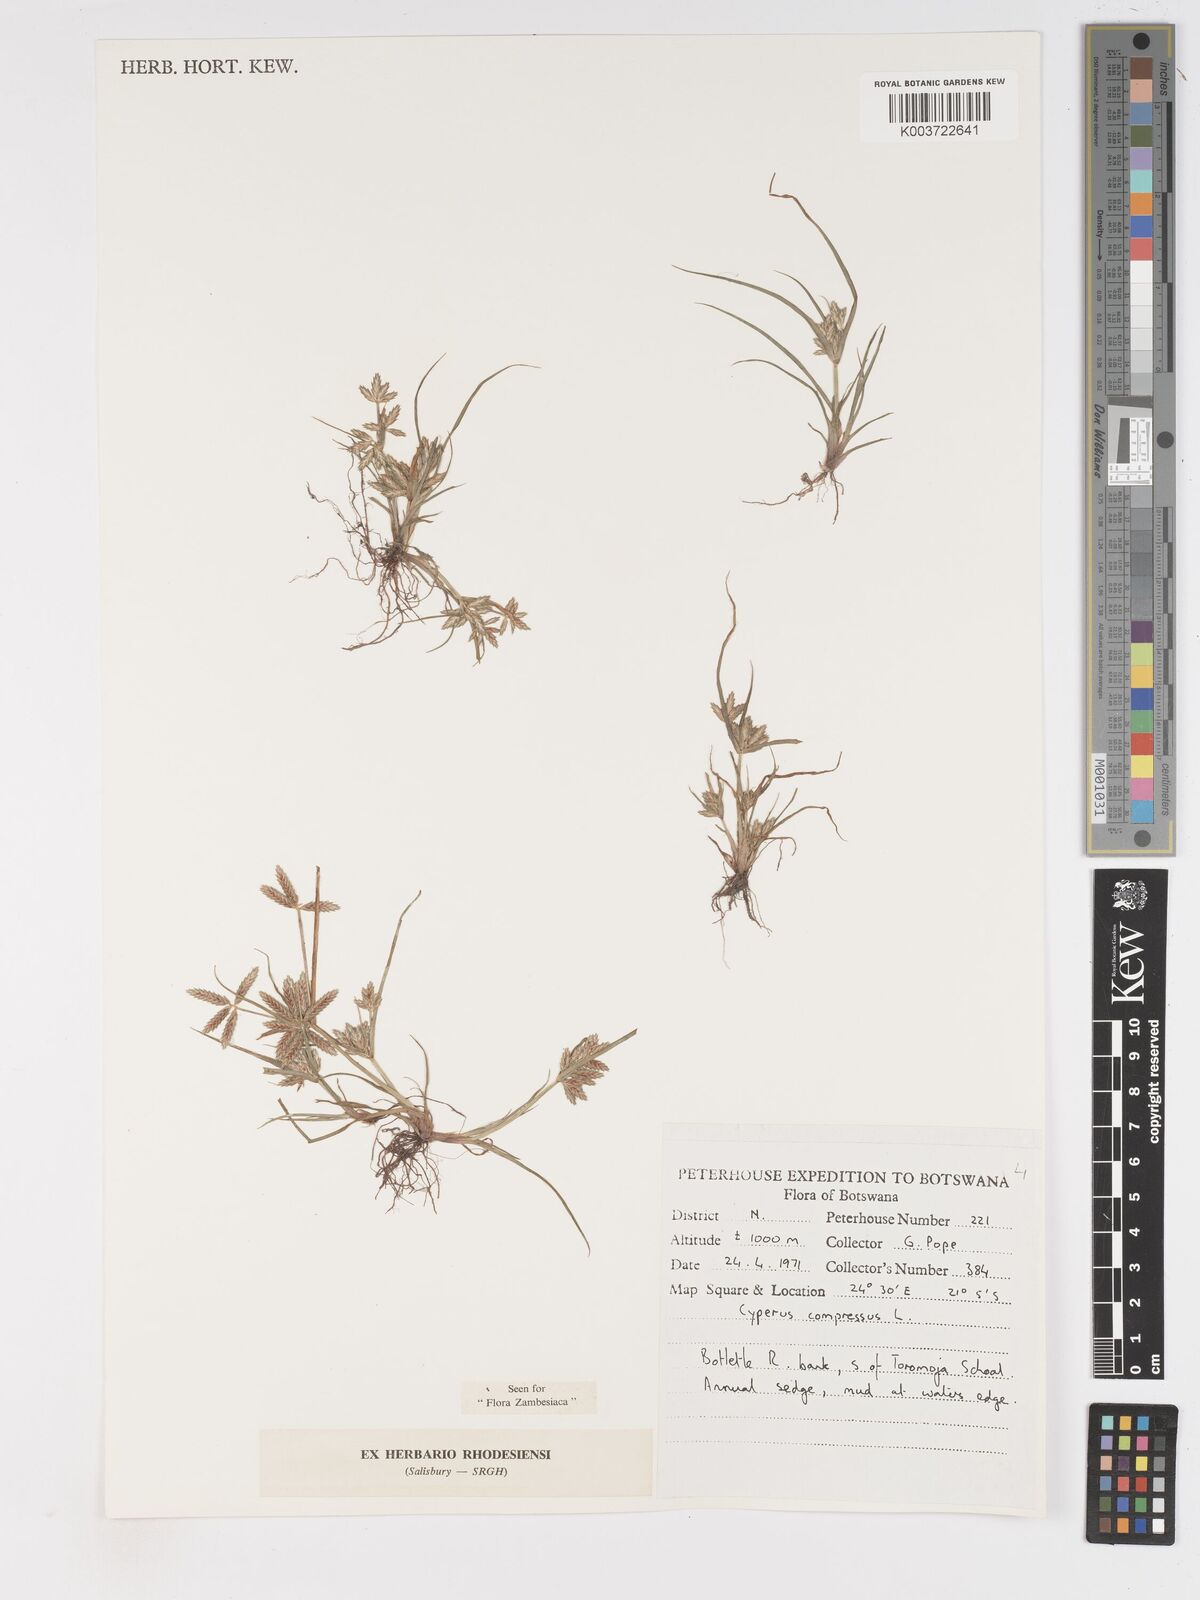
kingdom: Plantae
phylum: Tracheophyta
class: Liliopsida
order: Poales
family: Cyperaceae
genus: Cyperus
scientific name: Cyperus compressus
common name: Poorland flatsedge
